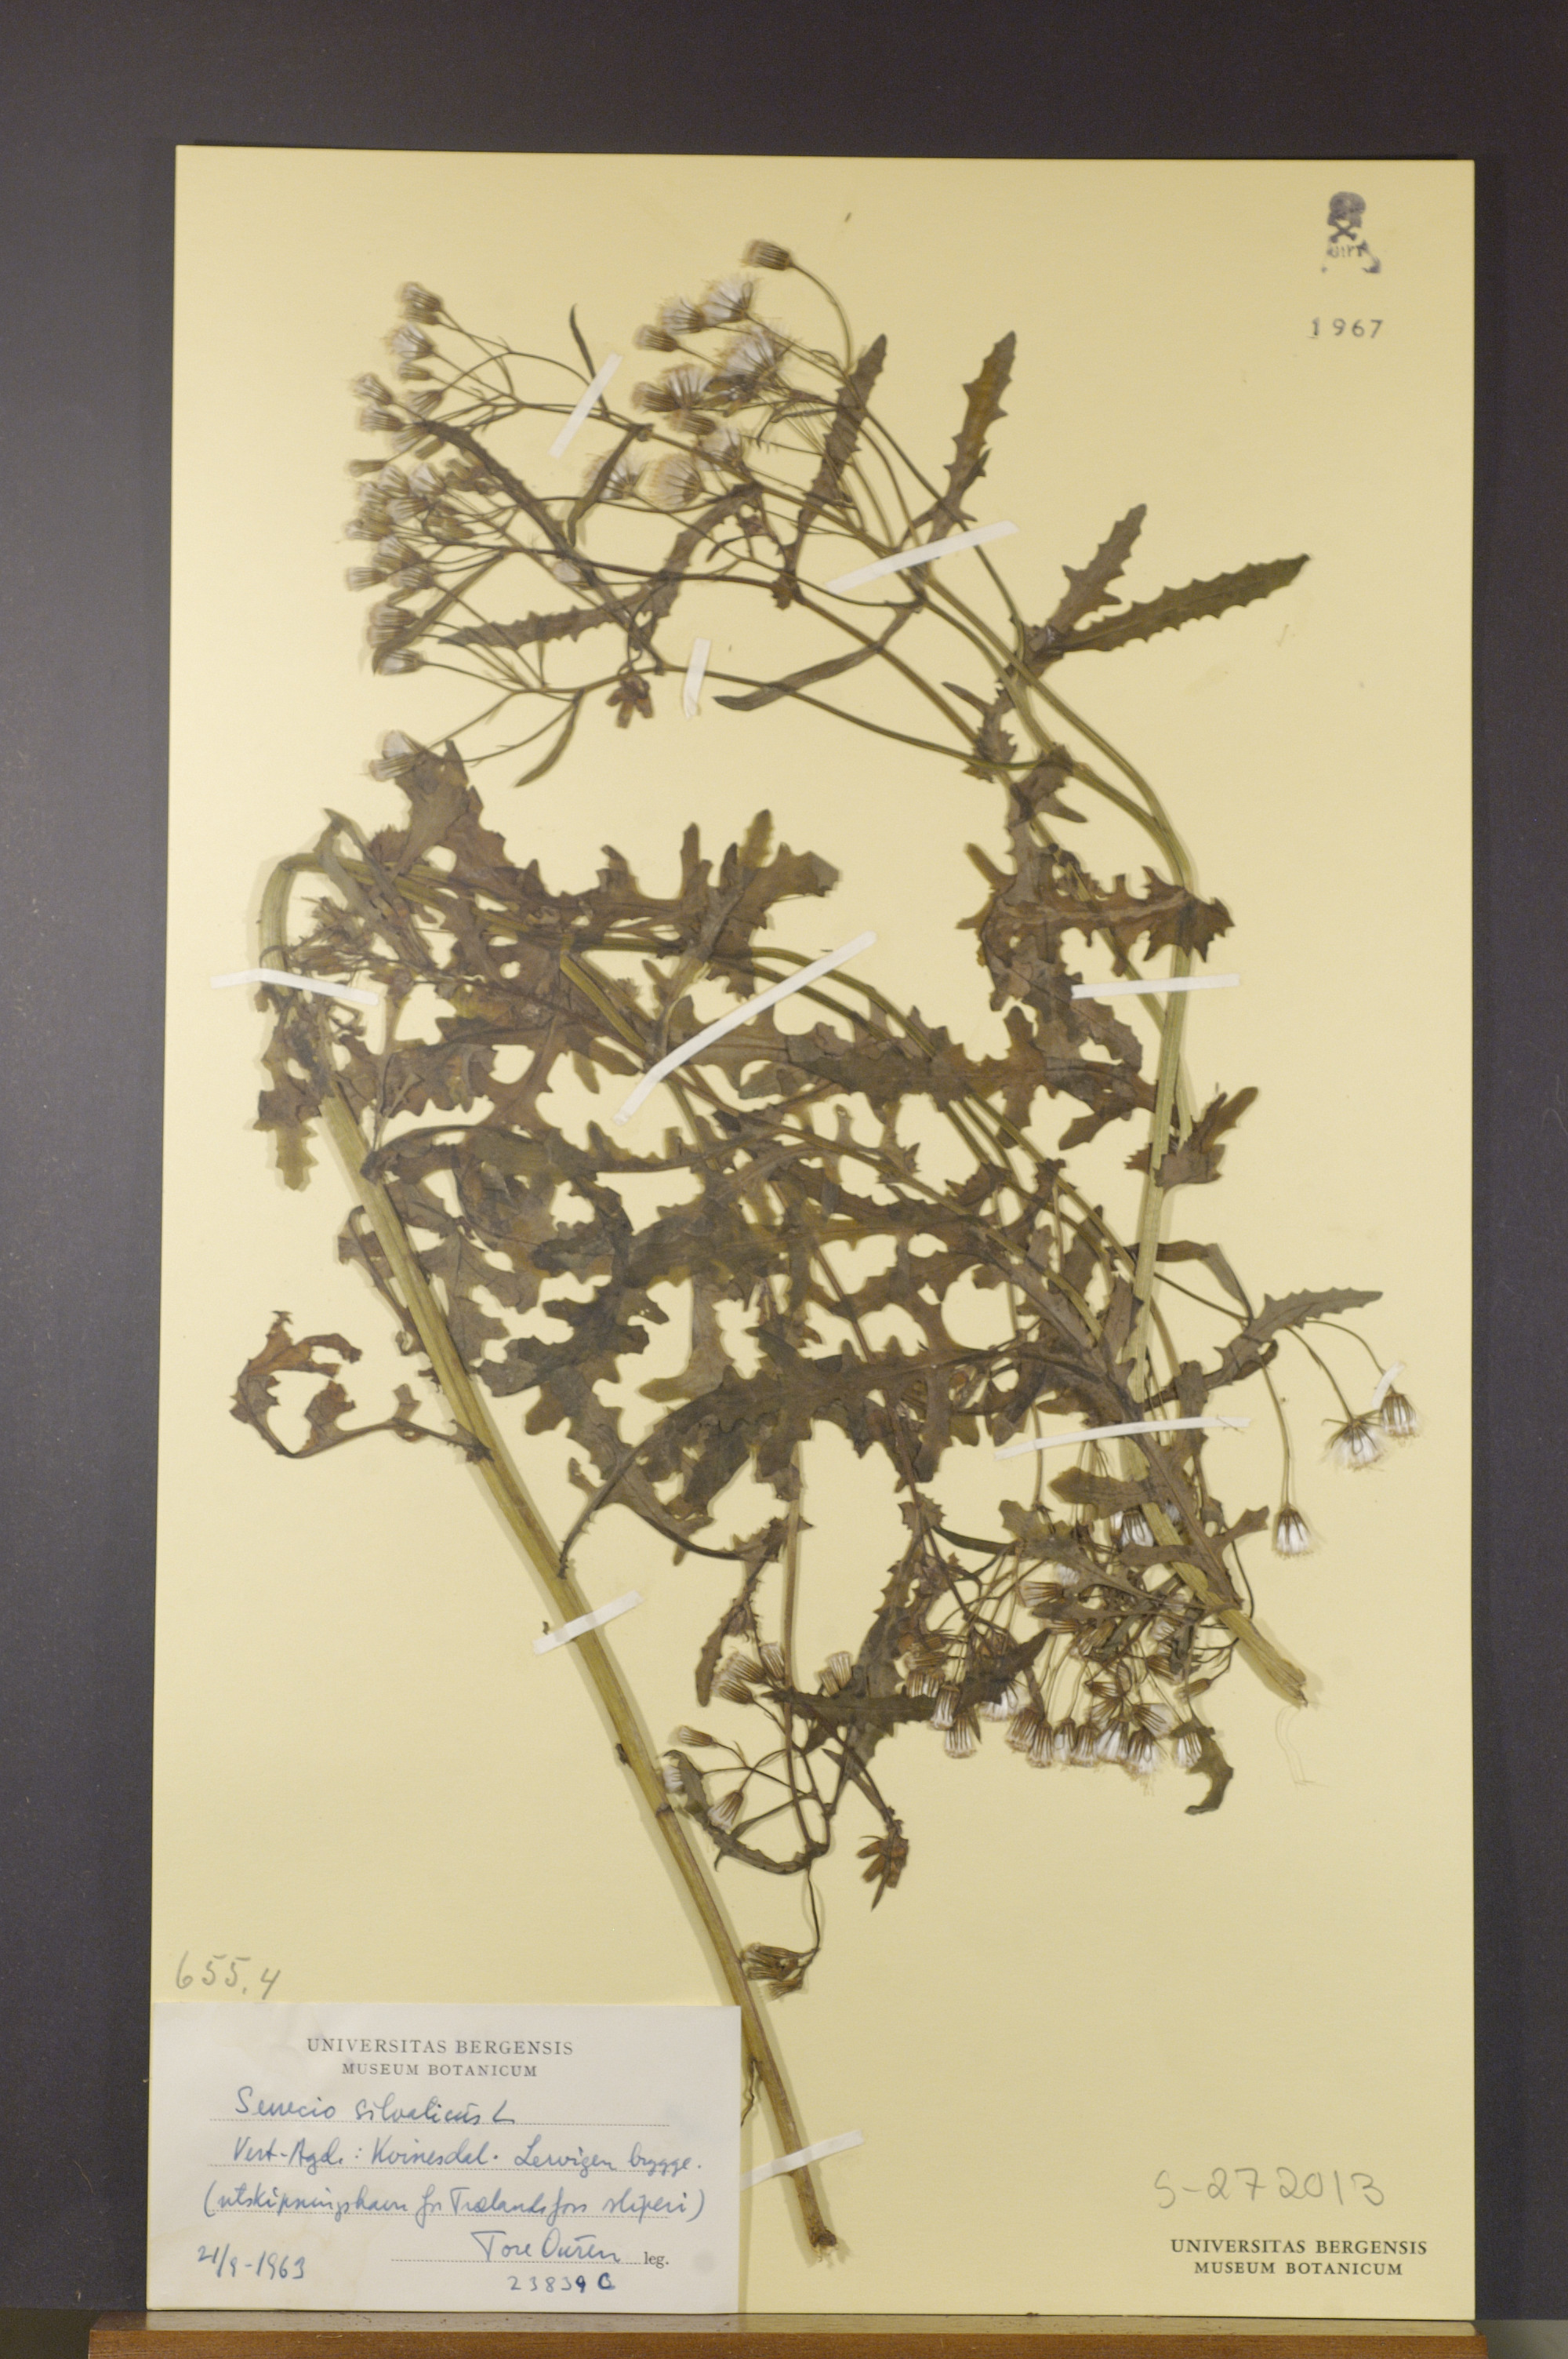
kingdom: Plantae
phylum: Tracheophyta
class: Magnoliopsida
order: Asterales
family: Asteraceae
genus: Senecio
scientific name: Senecio sylvaticus
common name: Woodland ragwort
